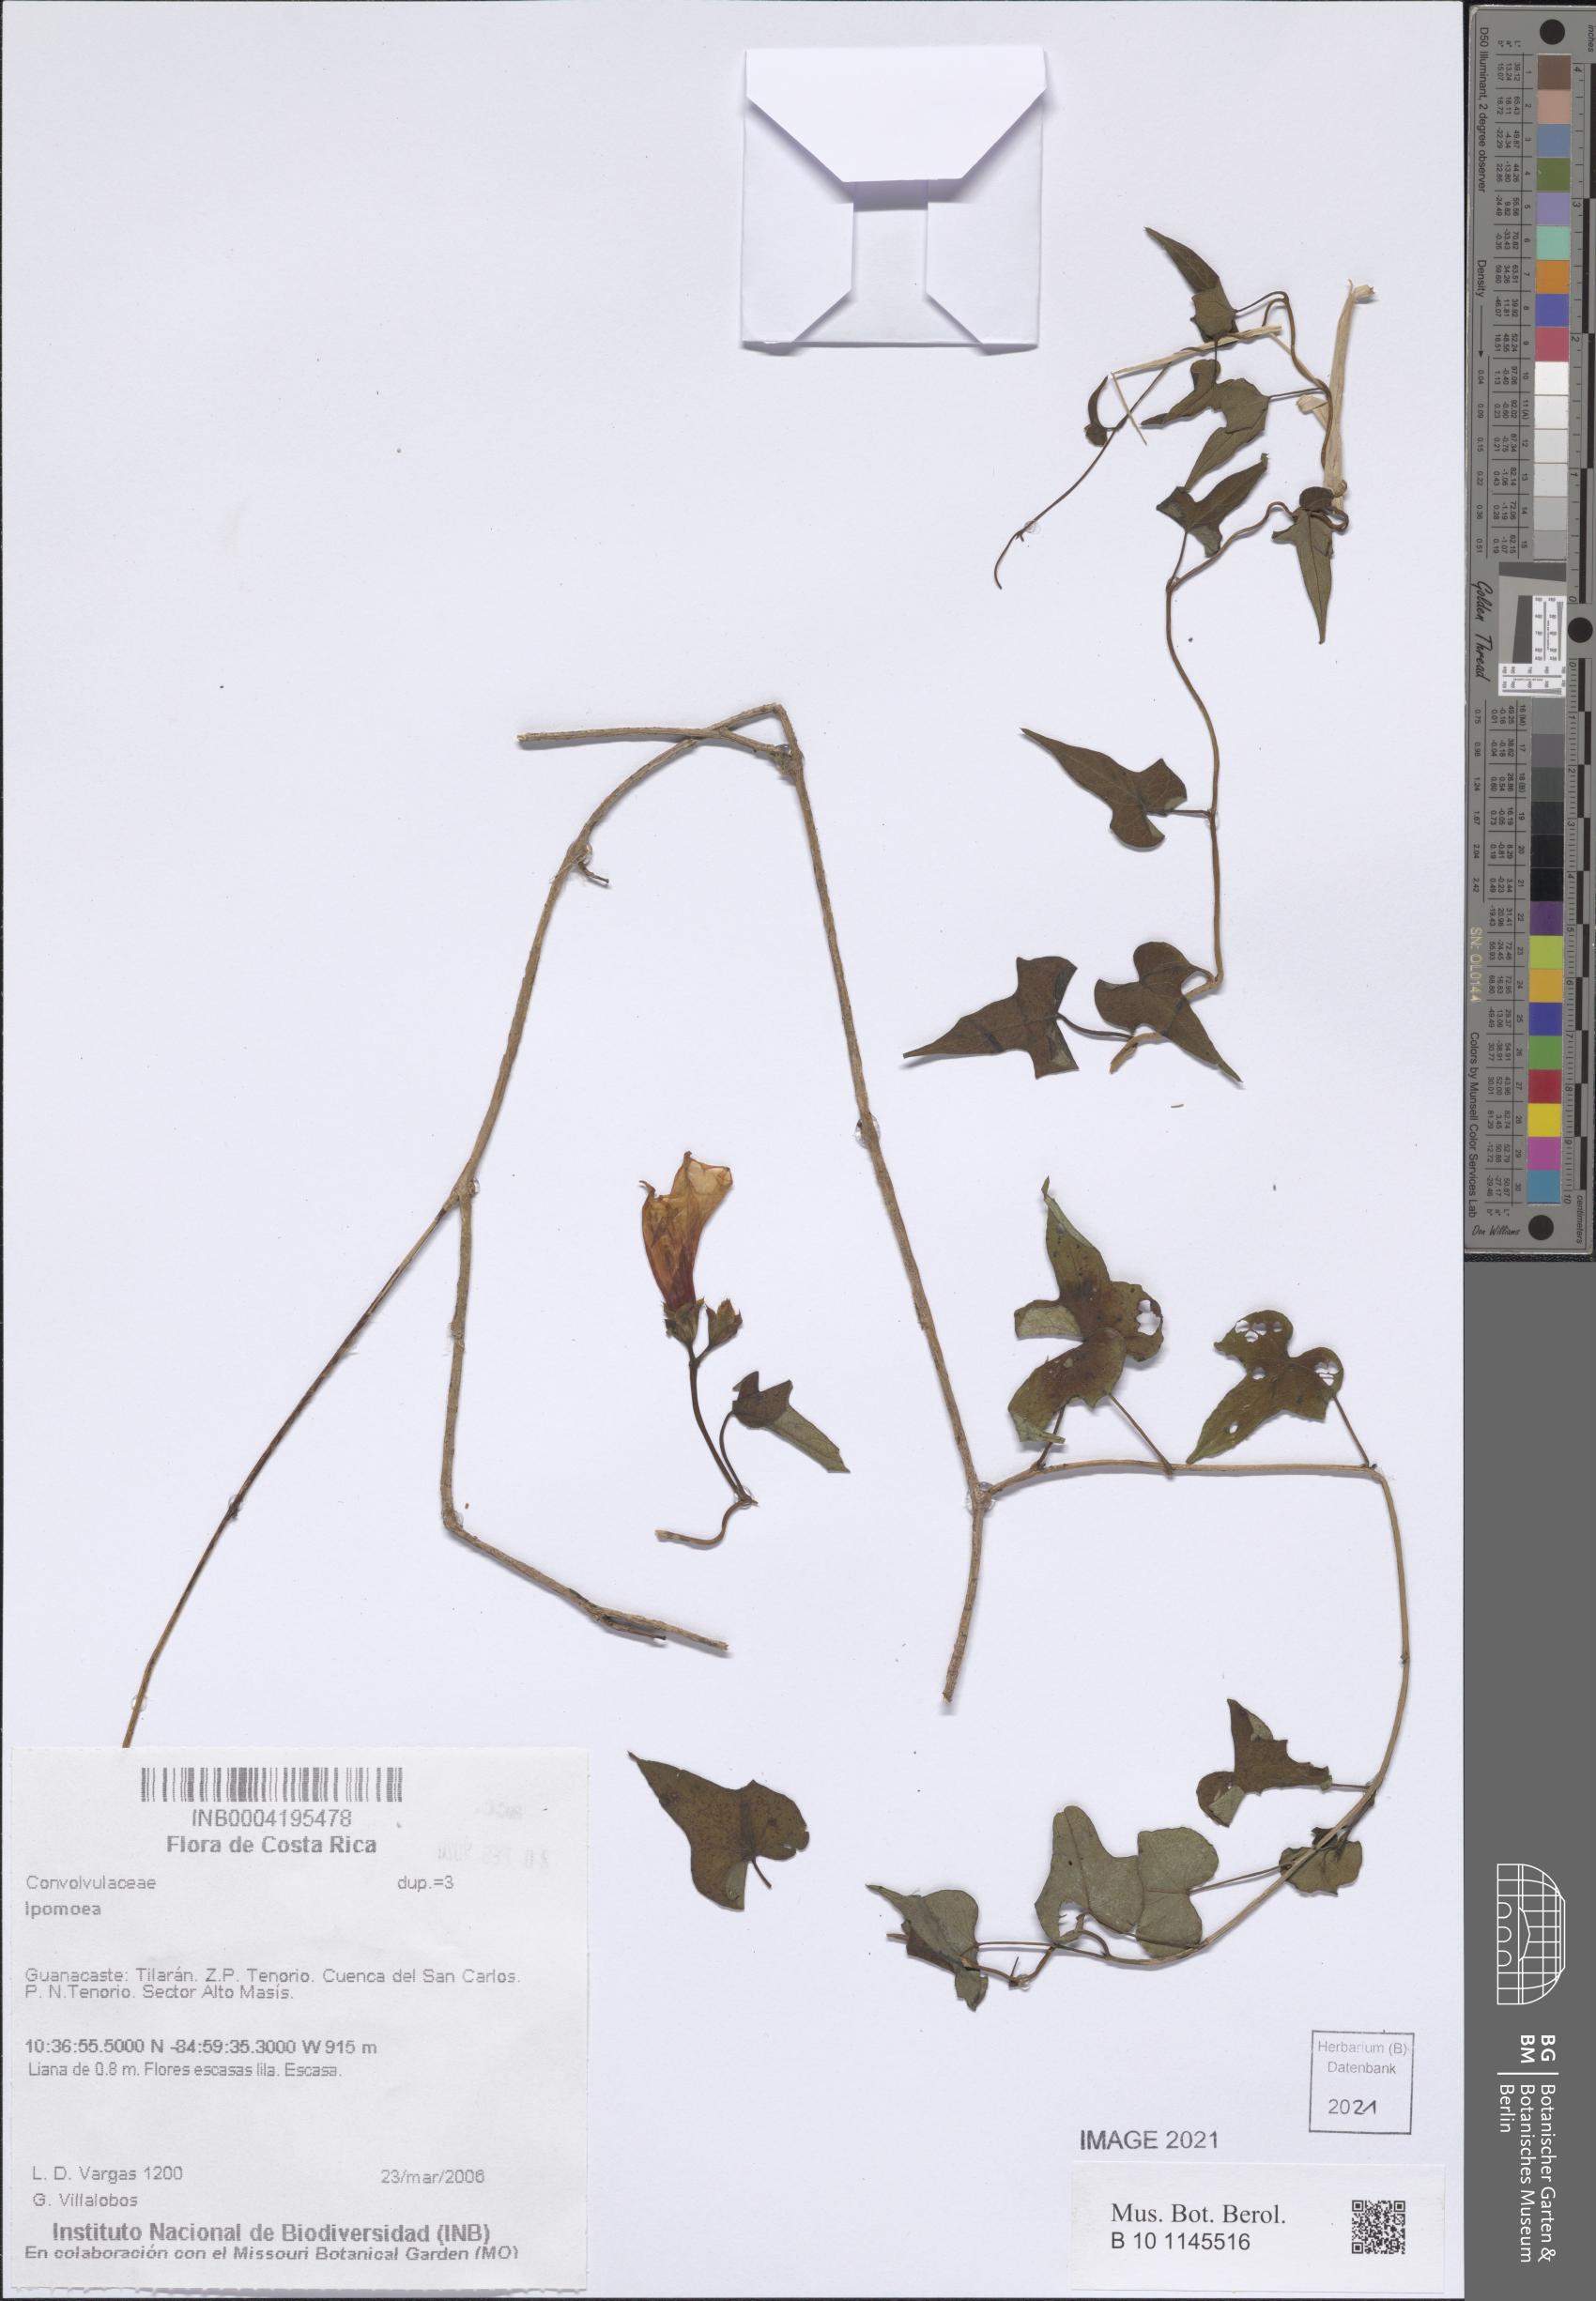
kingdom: Plantae
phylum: Tracheophyta
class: Magnoliopsida
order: Solanales
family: Convolvulaceae
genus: Ipomoea
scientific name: Ipomoea
